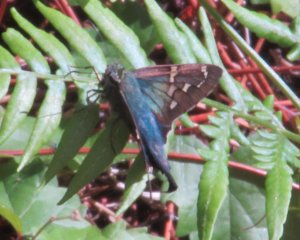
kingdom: Animalia
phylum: Arthropoda
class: Insecta
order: Lepidoptera
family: Hesperiidae
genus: Urbanus
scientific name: Urbanus proteus
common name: Long-tailed Skipper
